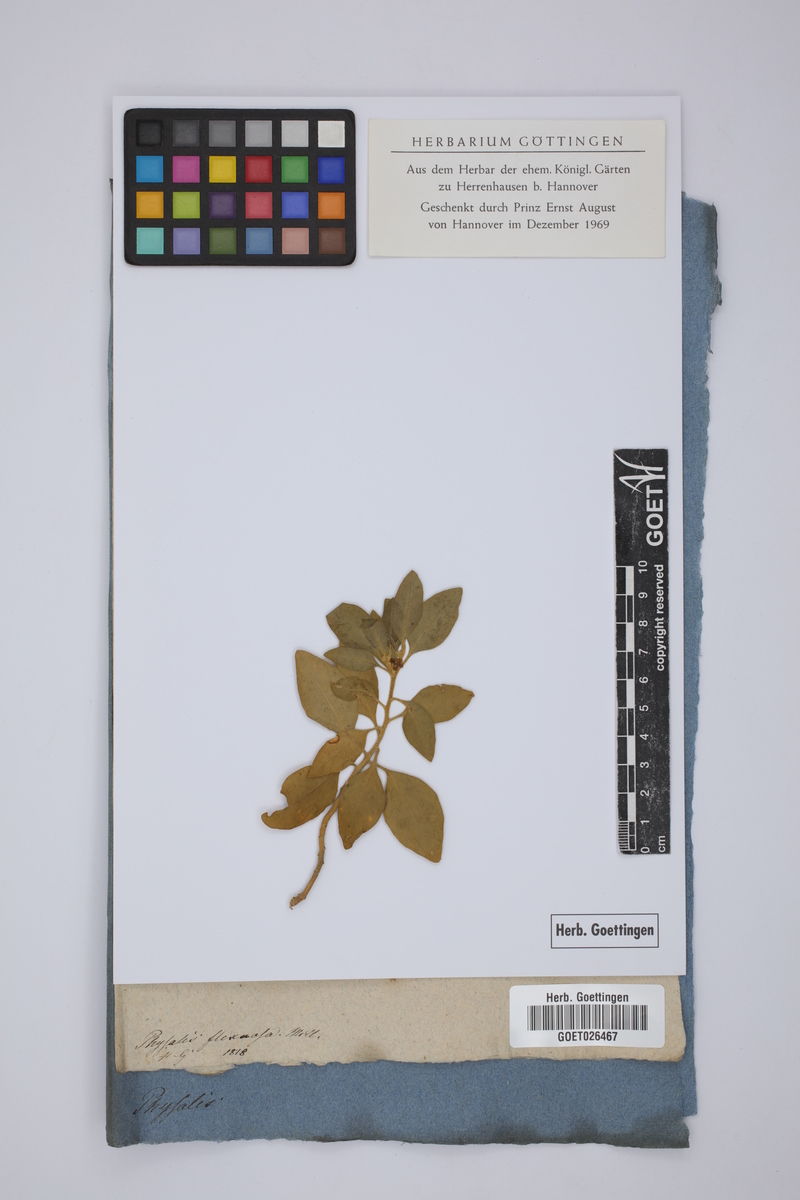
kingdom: Plantae
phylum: Tracheophyta
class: Magnoliopsida
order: Solanales
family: Solanaceae
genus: Withania
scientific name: Withania somnifera
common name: Winter-cherry
